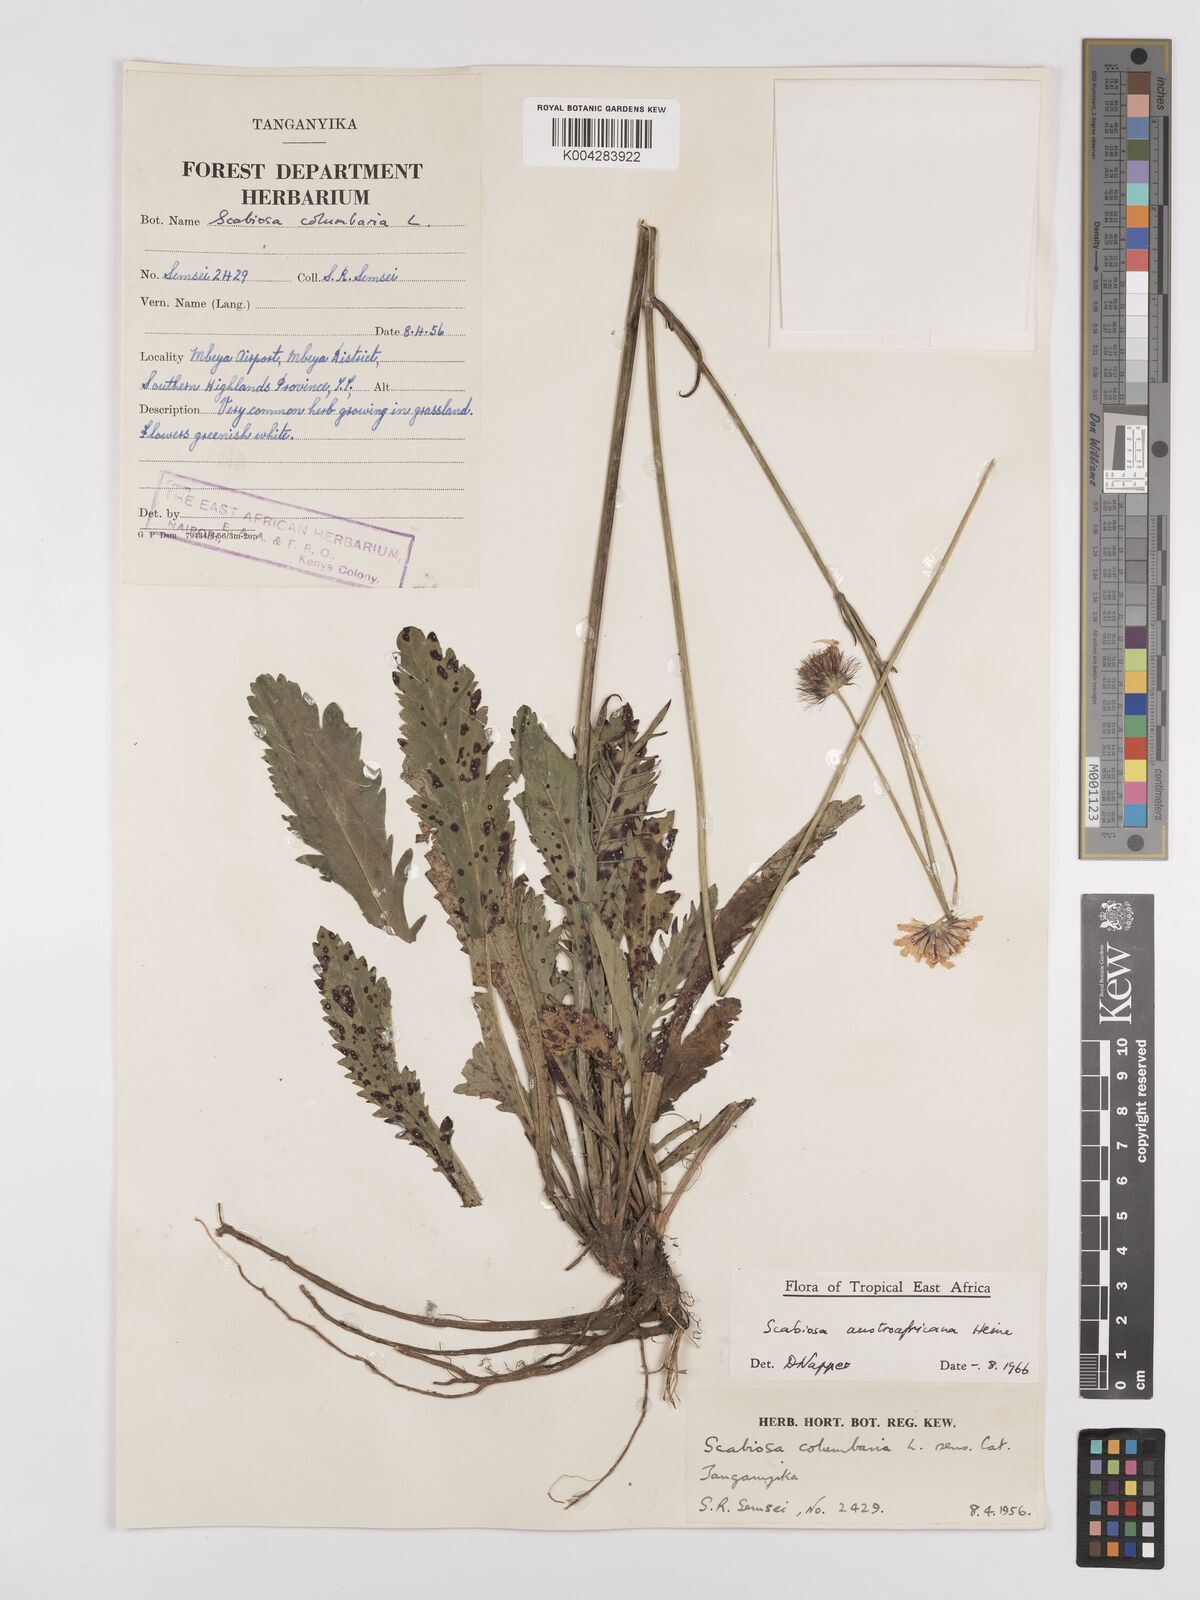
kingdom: Plantae
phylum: Tracheophyta
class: Magnoliopsida
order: Dipsacales
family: Caprifoliaceae
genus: Scabiosa
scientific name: Scabiosa austroafricana
